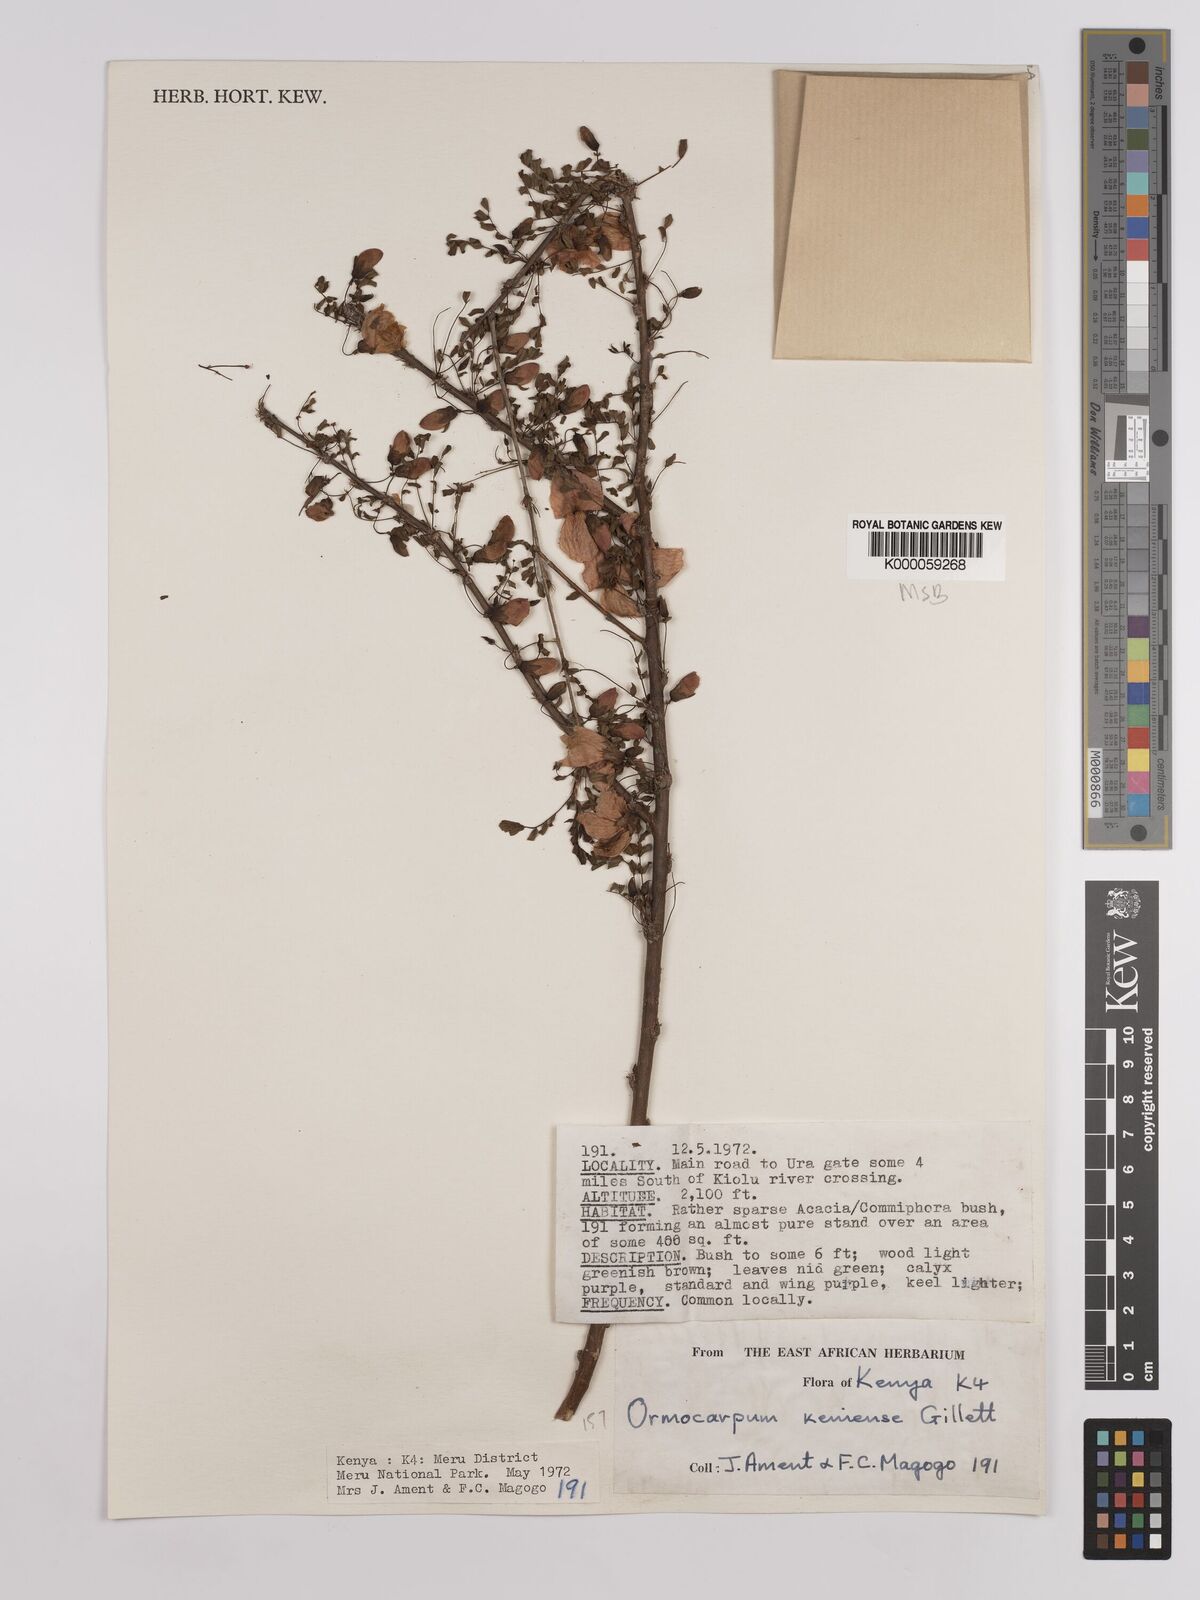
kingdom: Plantae
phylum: Tracheophyta
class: Magnoliopsida
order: Fabales
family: Fabaceae
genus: Ormocarpum
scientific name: Ormocarpum keniense
